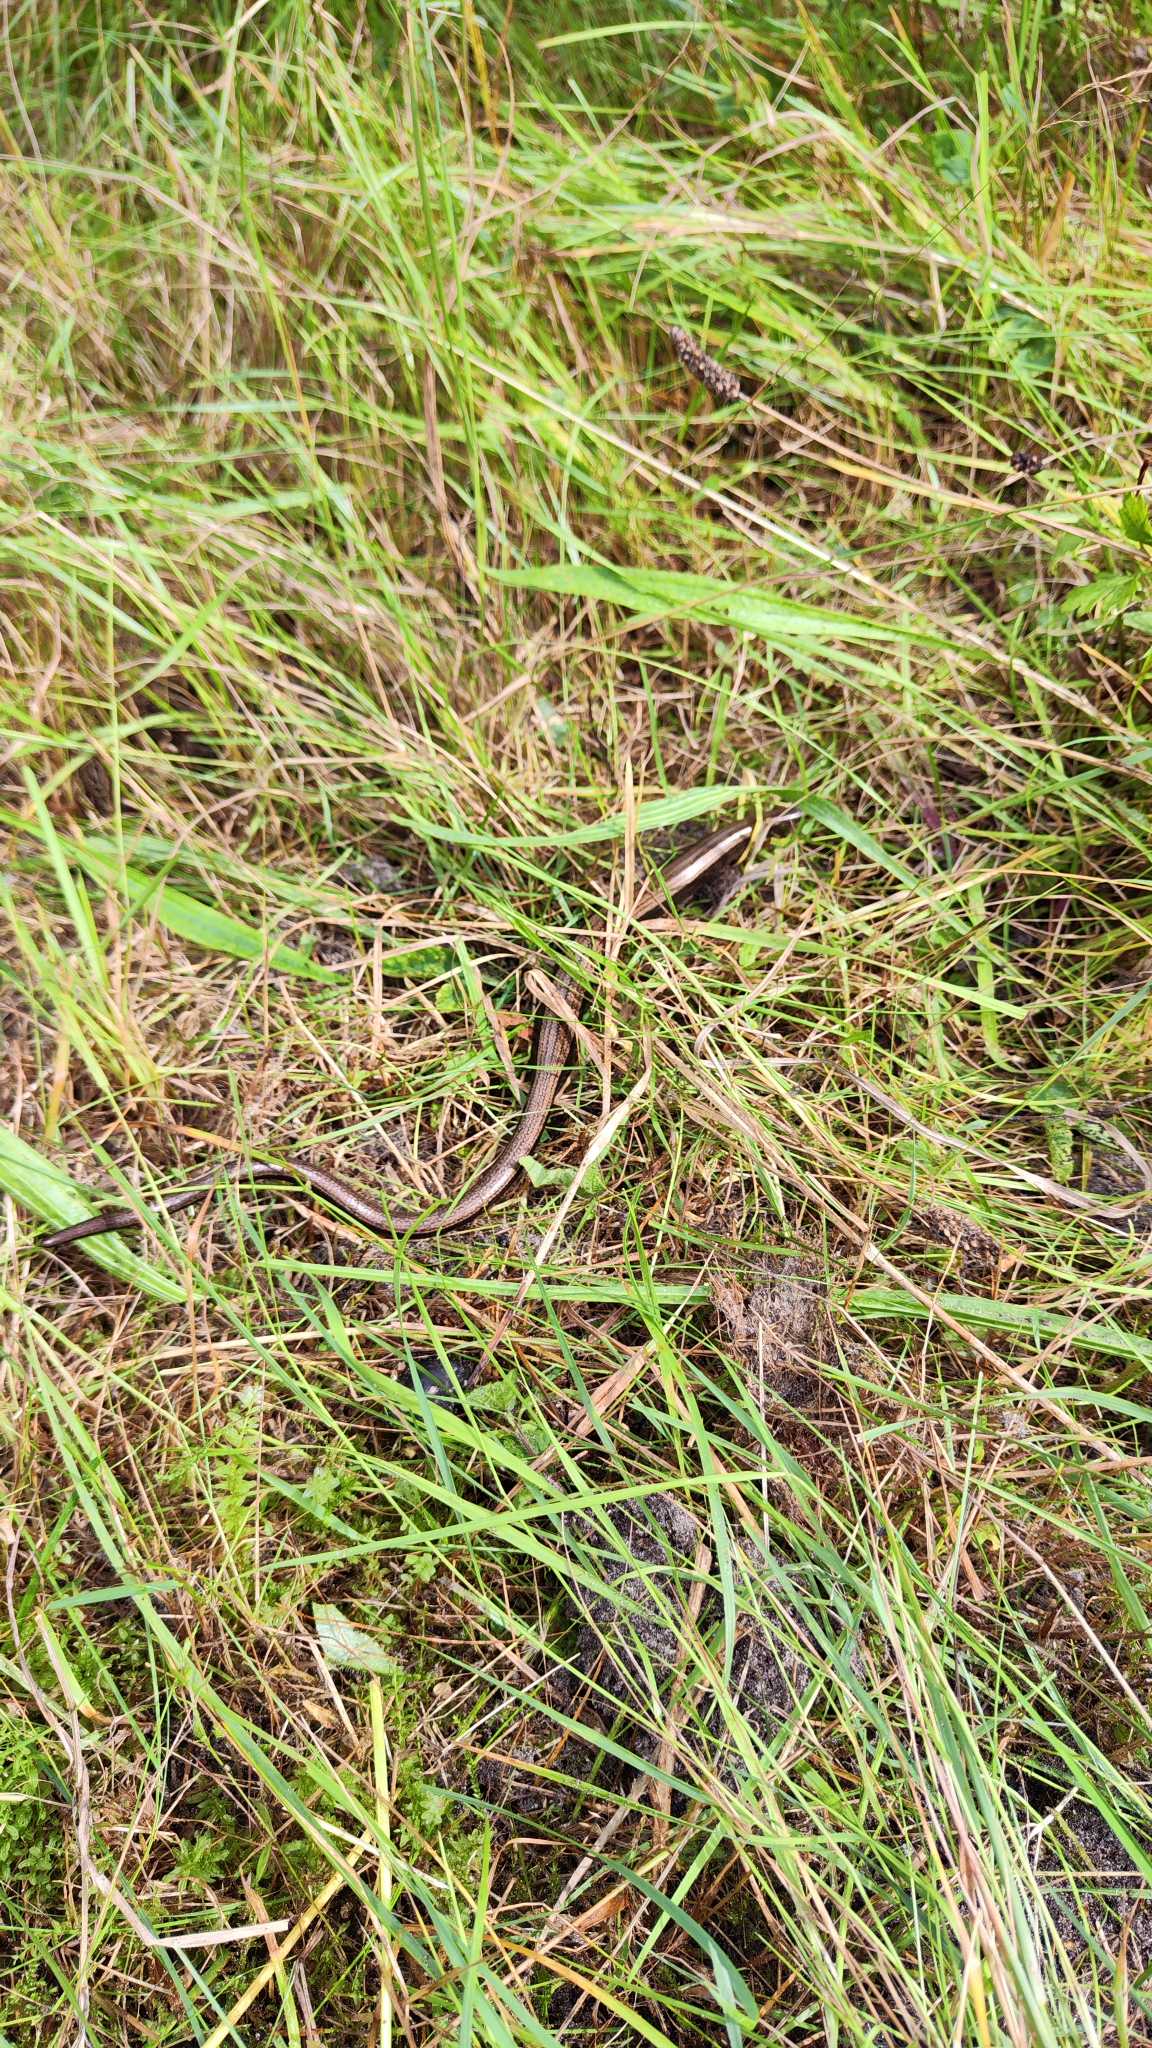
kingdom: Animalia
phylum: Chordata
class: Squamata
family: Anguidae
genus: Anguis
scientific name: Anguis fragilis
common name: Stålorm
